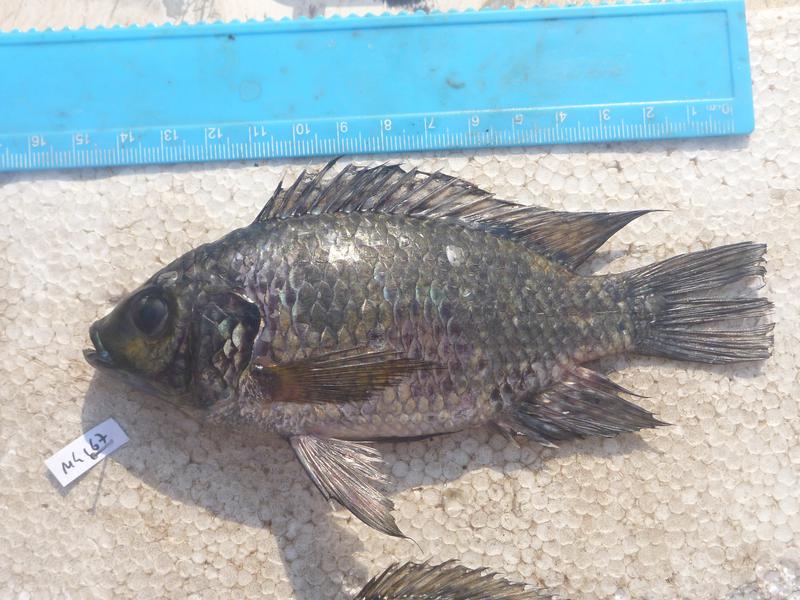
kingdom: Animalia
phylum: Chordata
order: Perciformes
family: Cichlidae
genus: Oreochromis
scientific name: Oreochromis leucostictus
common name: Blue spotted tilapia
